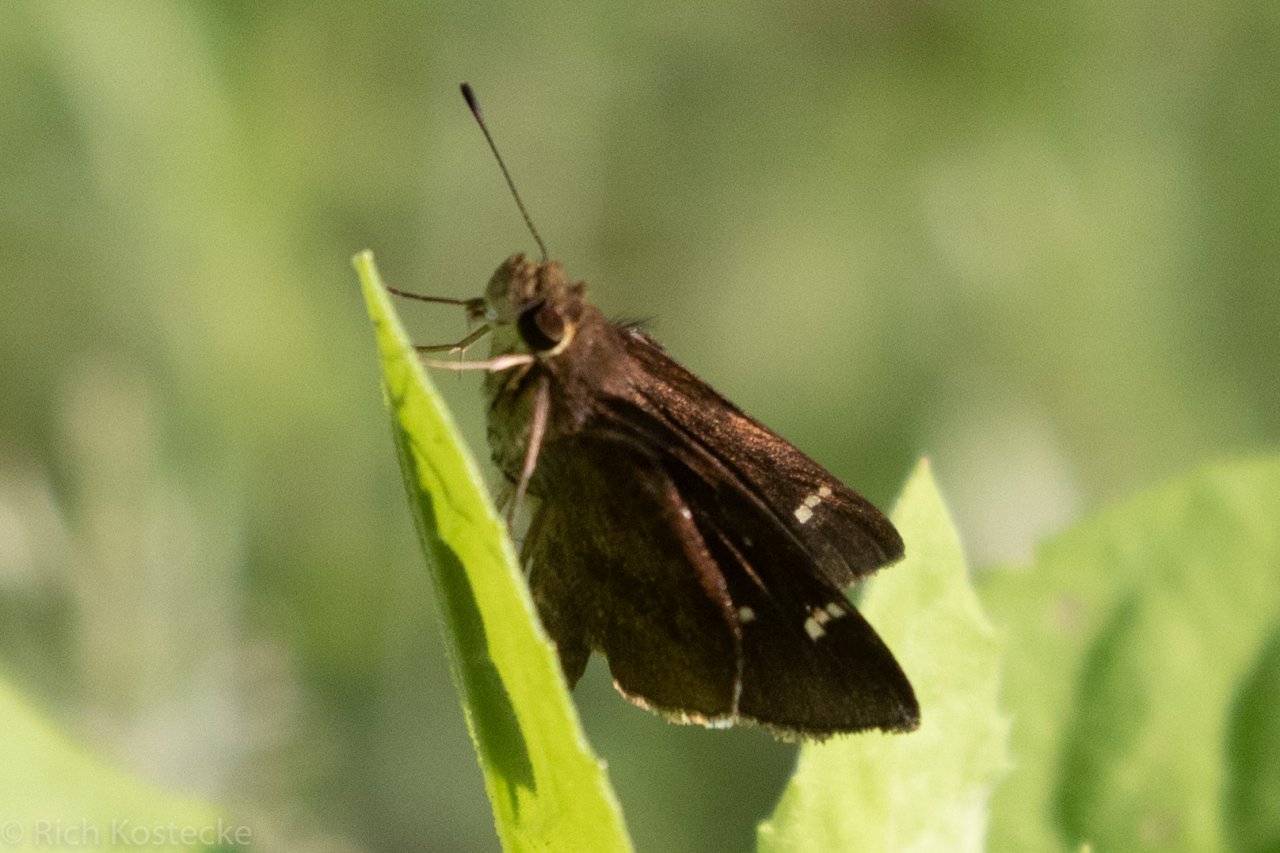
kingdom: Animalia
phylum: Arthropoda
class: Insecta
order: Lepidoptera
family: Hesperiidae
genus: Lerema
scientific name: Lerema accius
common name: Clouded Skipper
